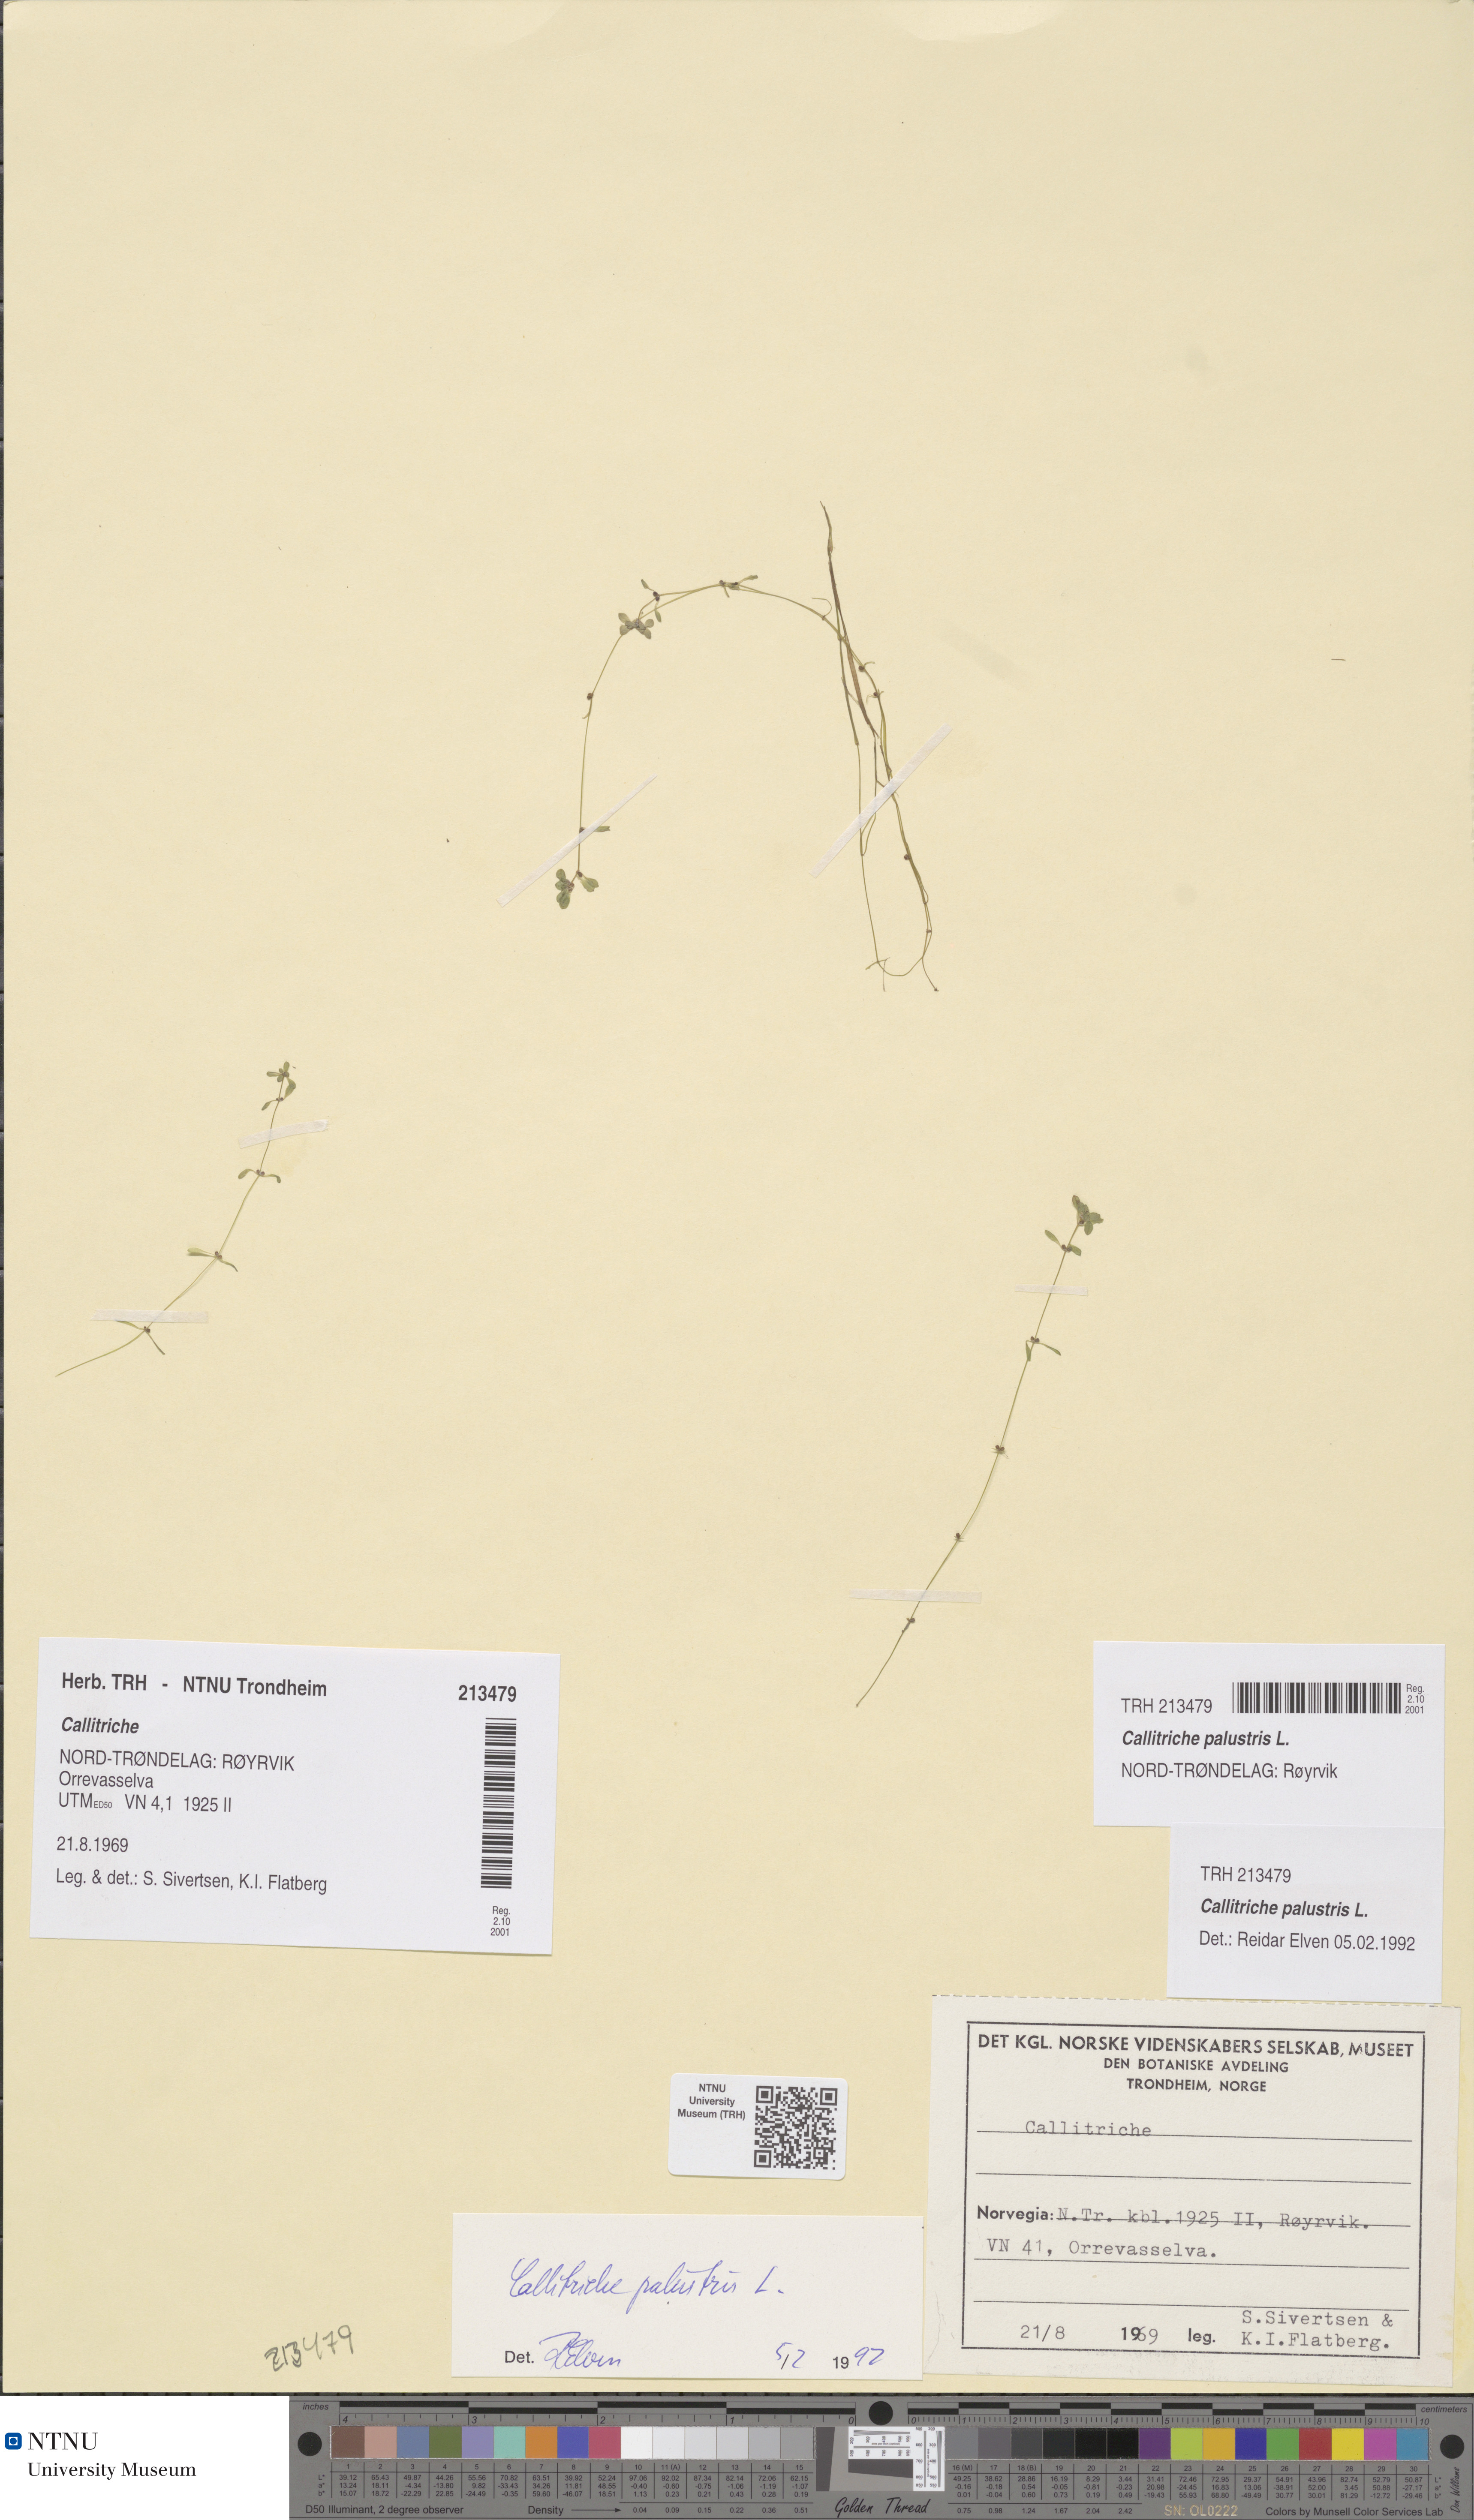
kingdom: Plantae
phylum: Tracheophyta
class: Magnoliopsida
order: Lamiales
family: Plantaginaceae
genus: Callitriche
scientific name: Callitriche palustris
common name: Spring water-starwort
